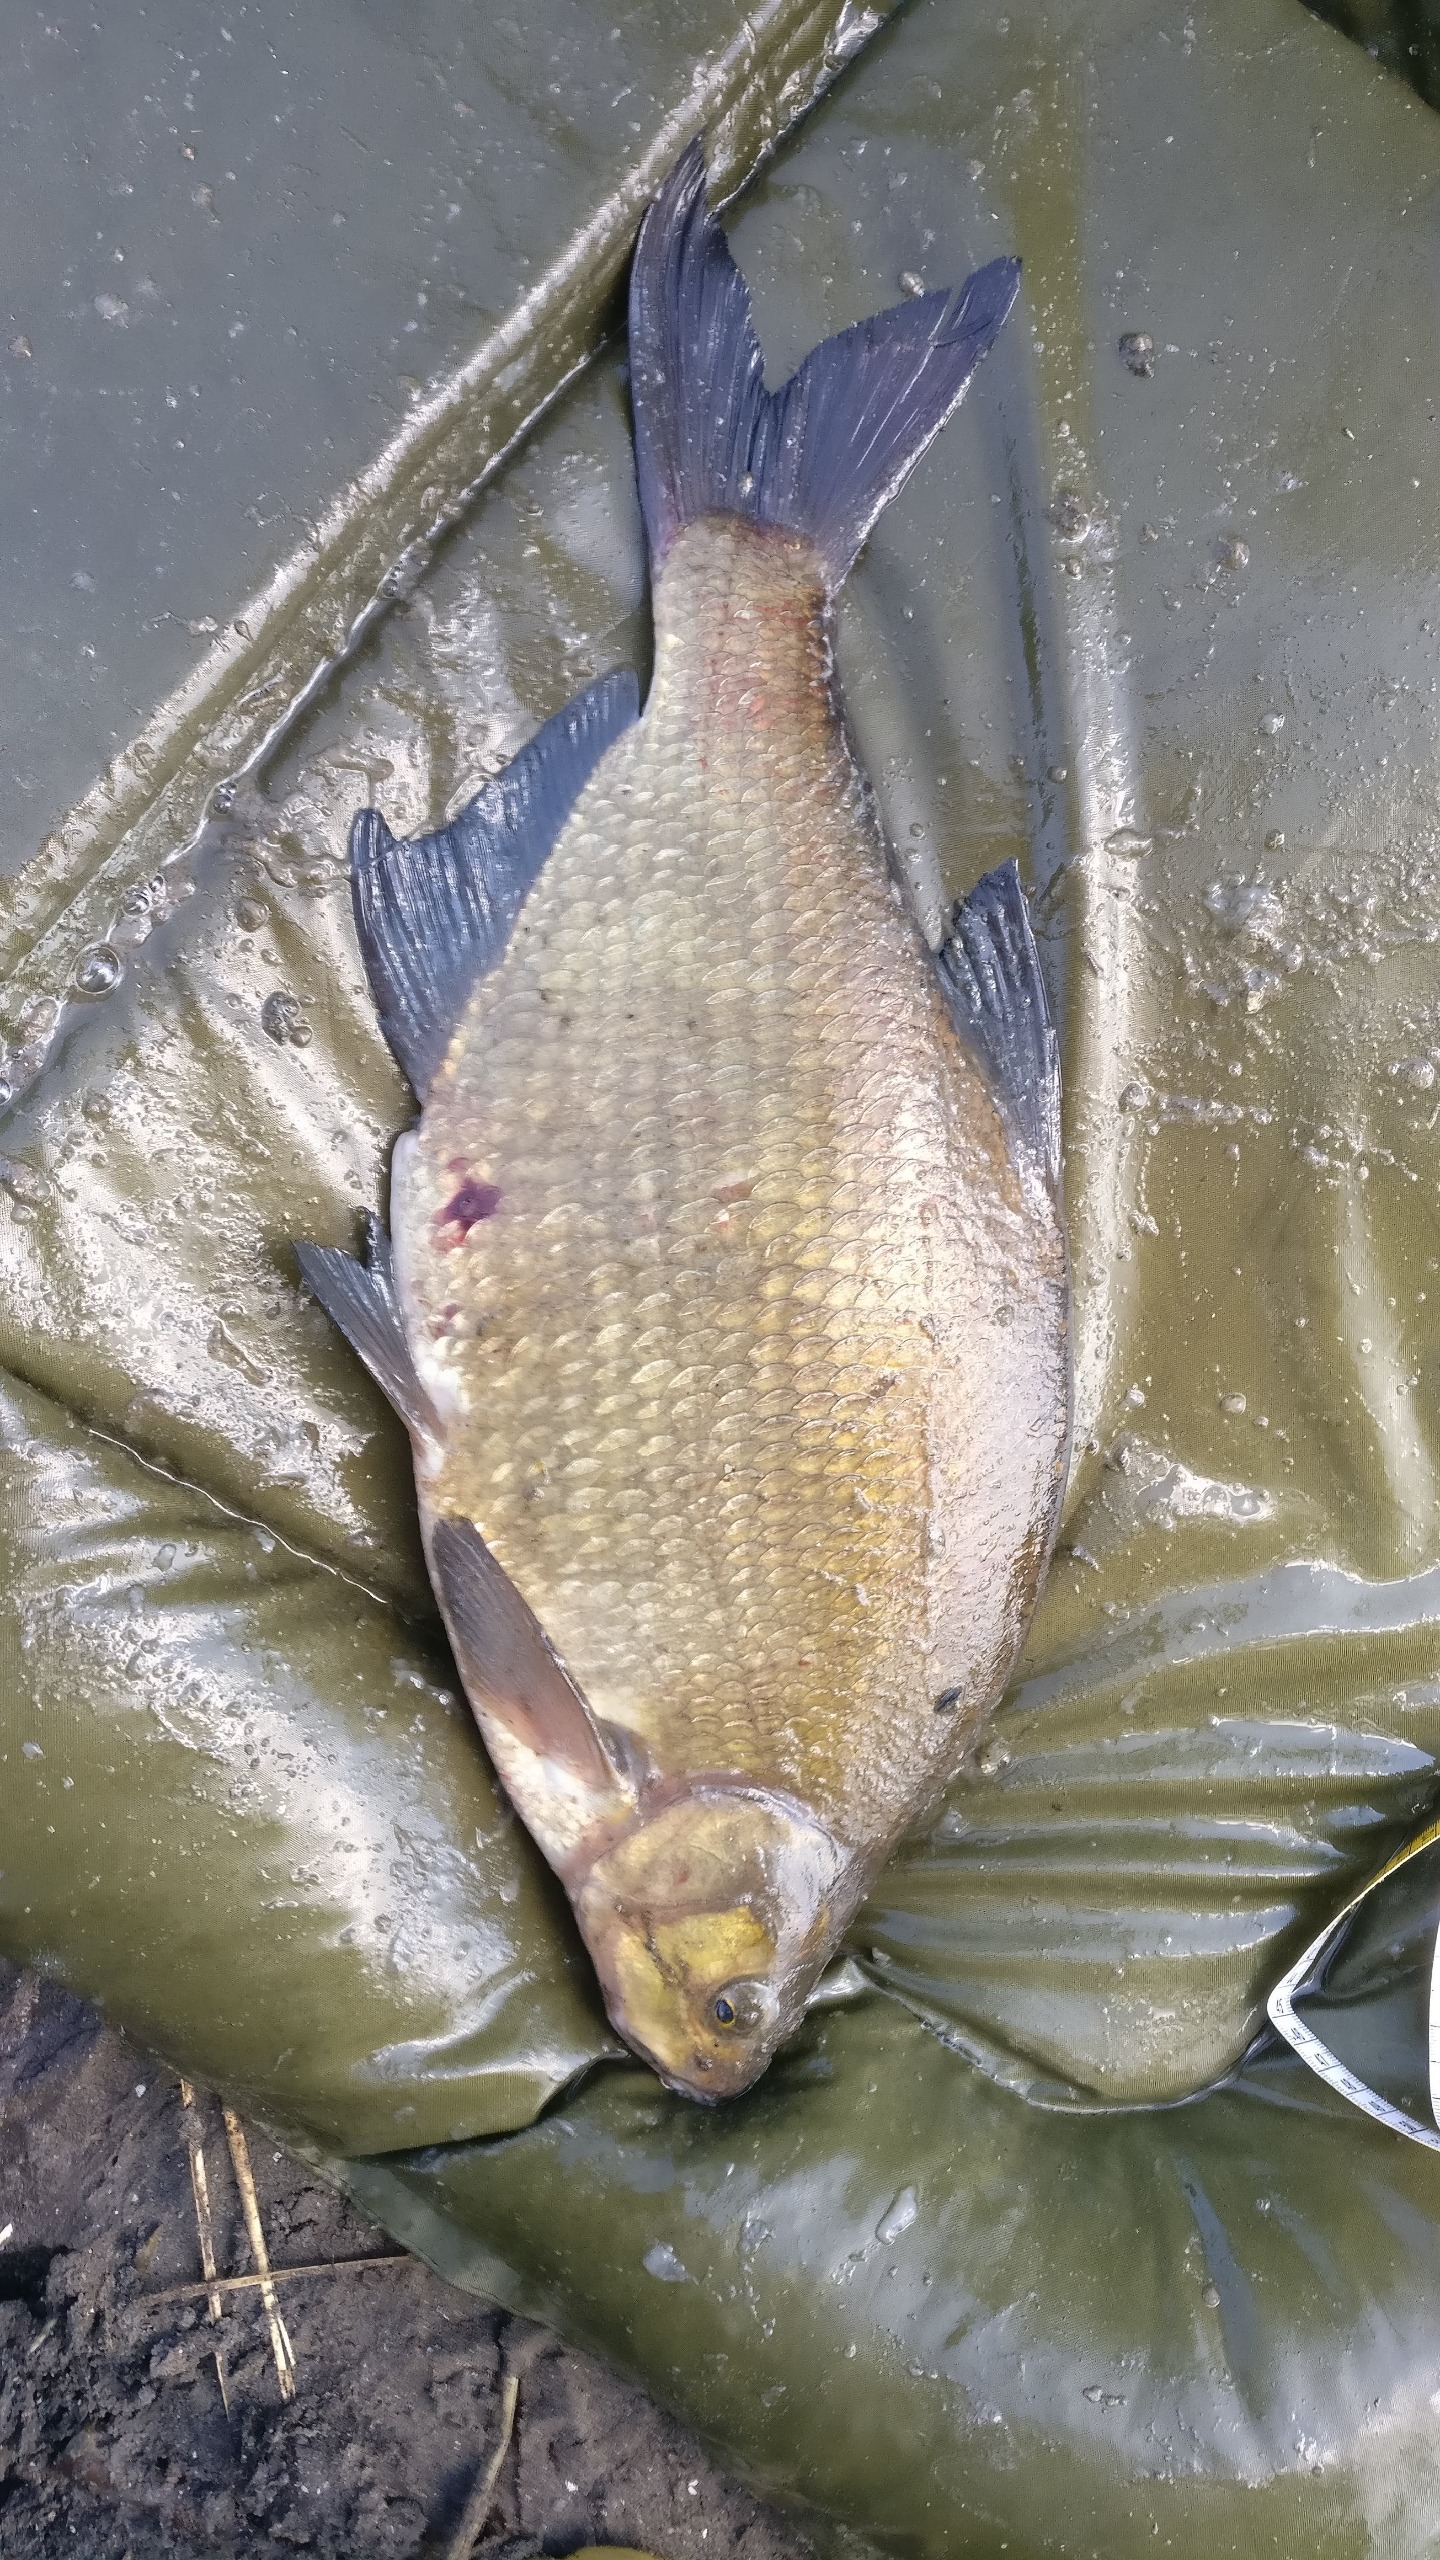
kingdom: Animalia
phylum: Chordata
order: Cypriniformes
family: Cyprinidae
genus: Abramis
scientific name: Abramis brama
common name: Brasen
